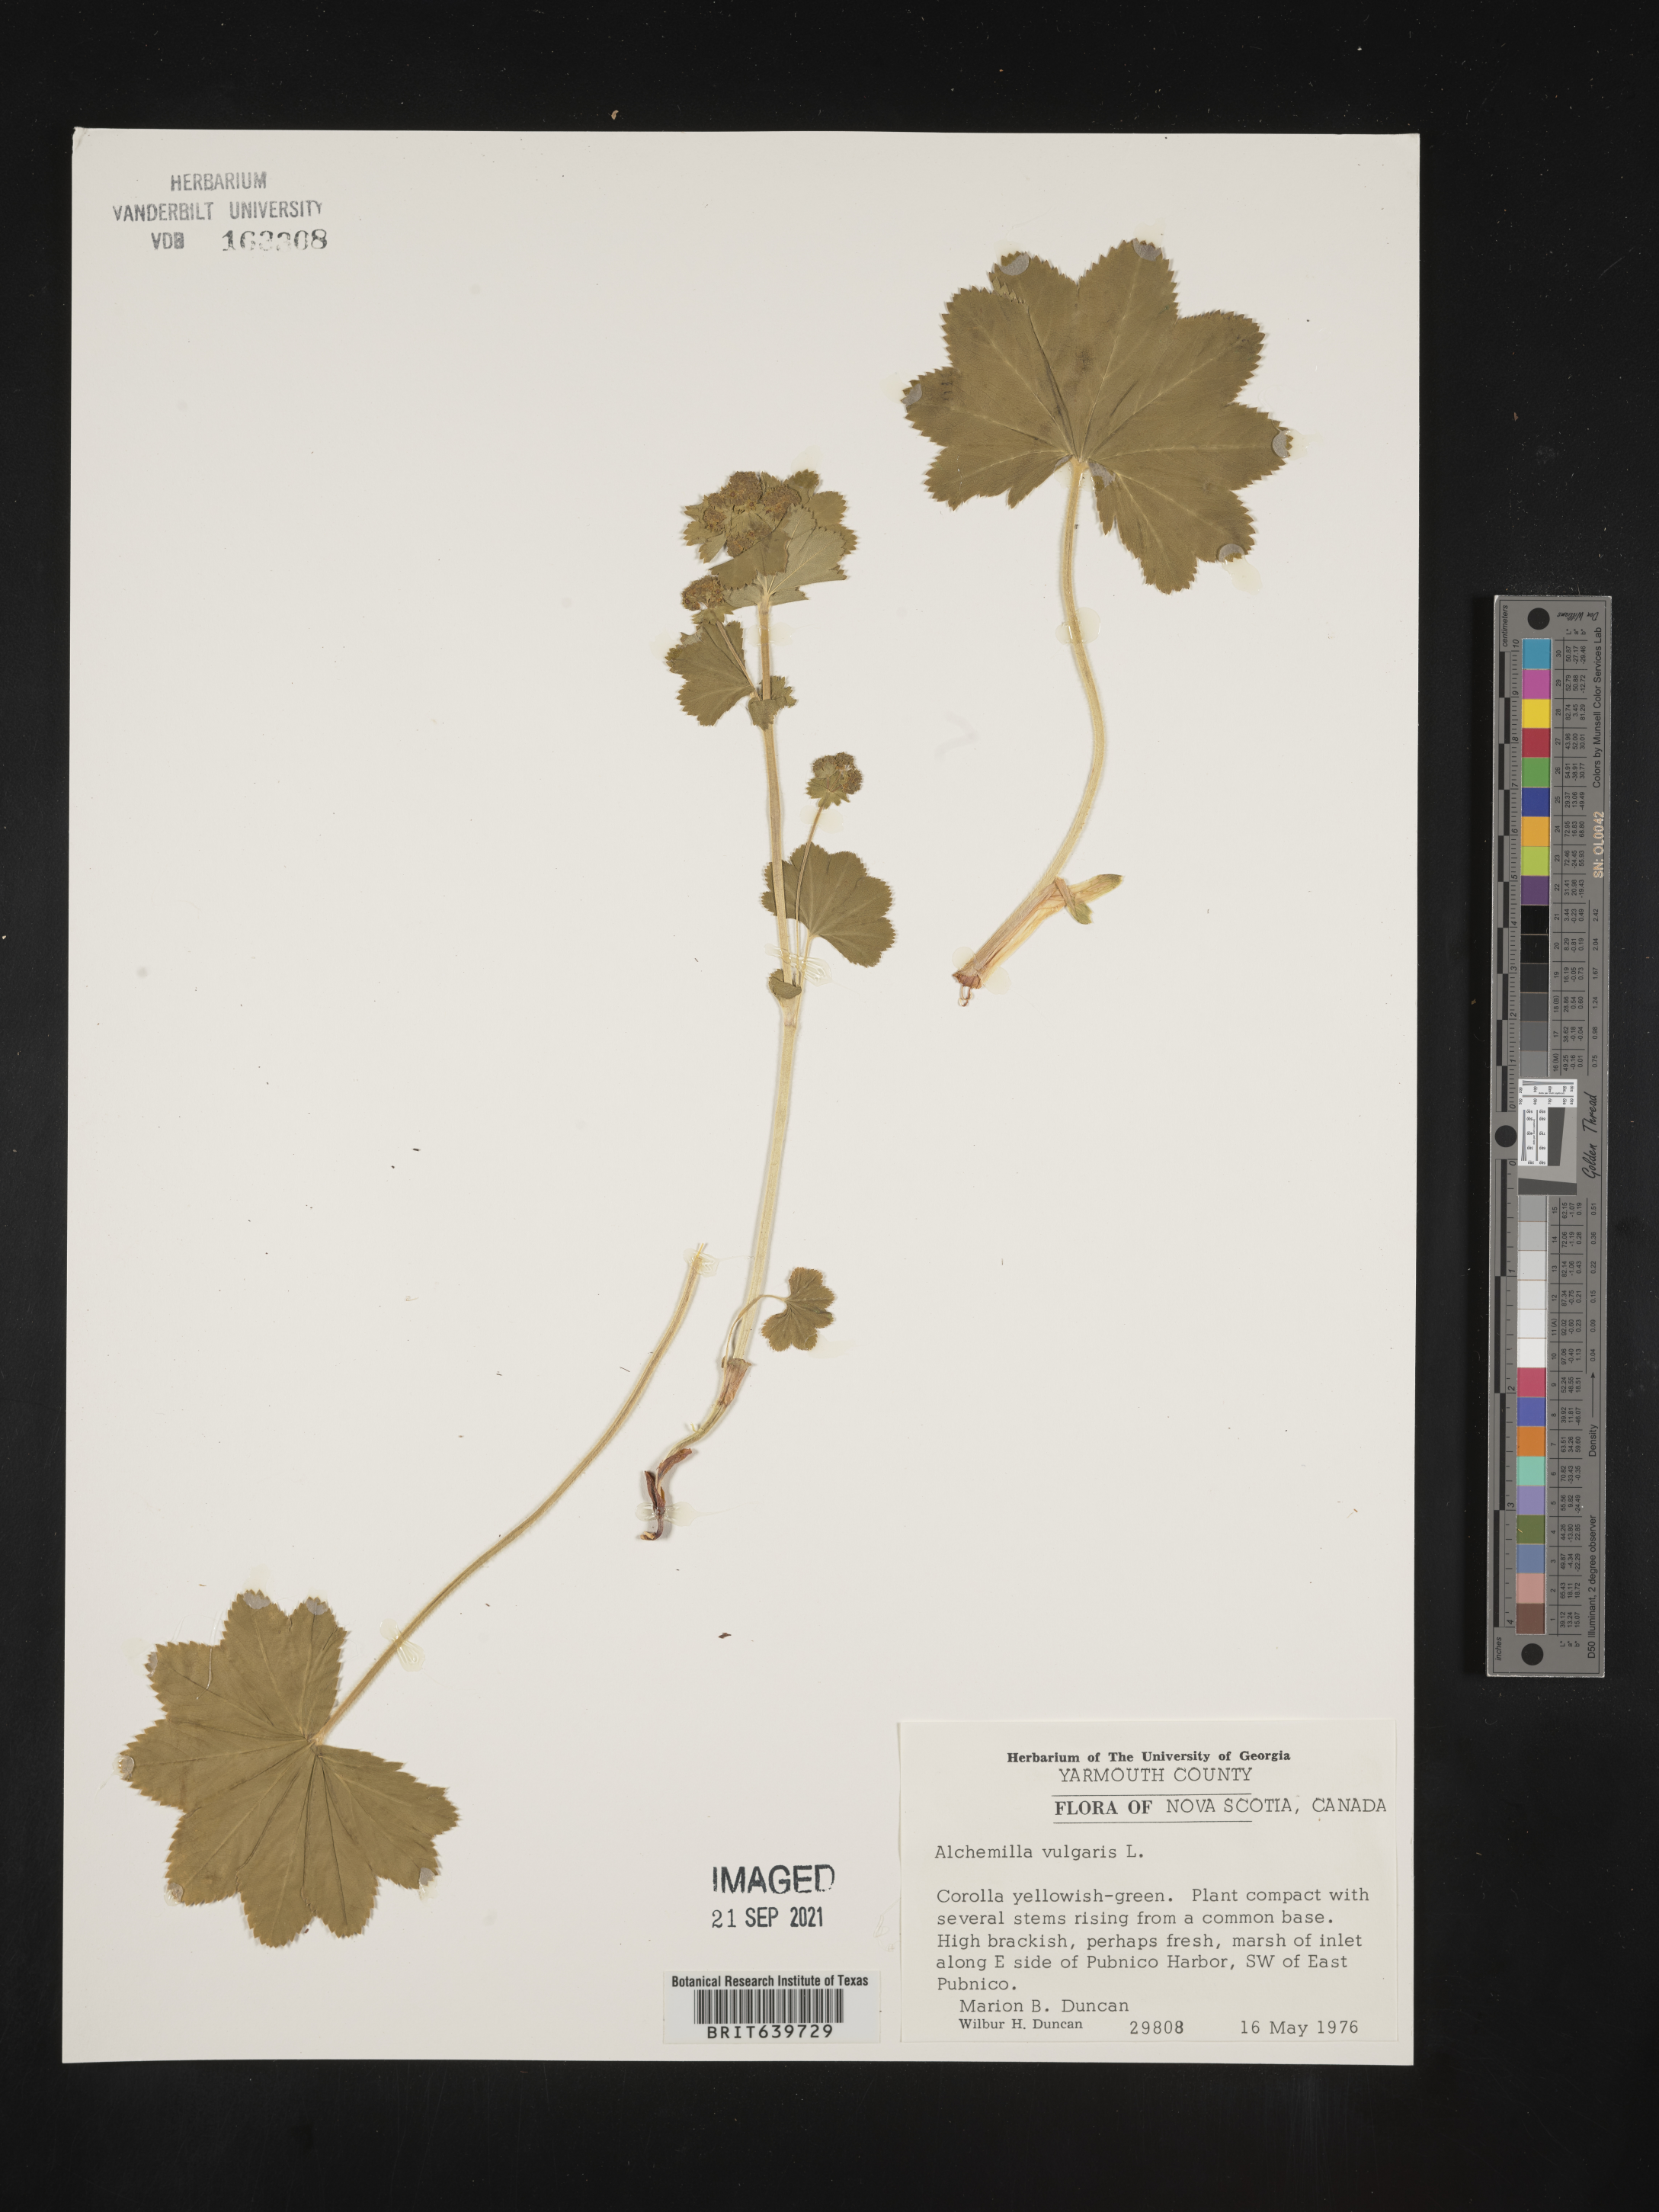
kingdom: Plantae
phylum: Tracheophyta
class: Magnoliopsida
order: Rosales
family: Rosaceae
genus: Alchemilla
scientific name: Alchemilla
